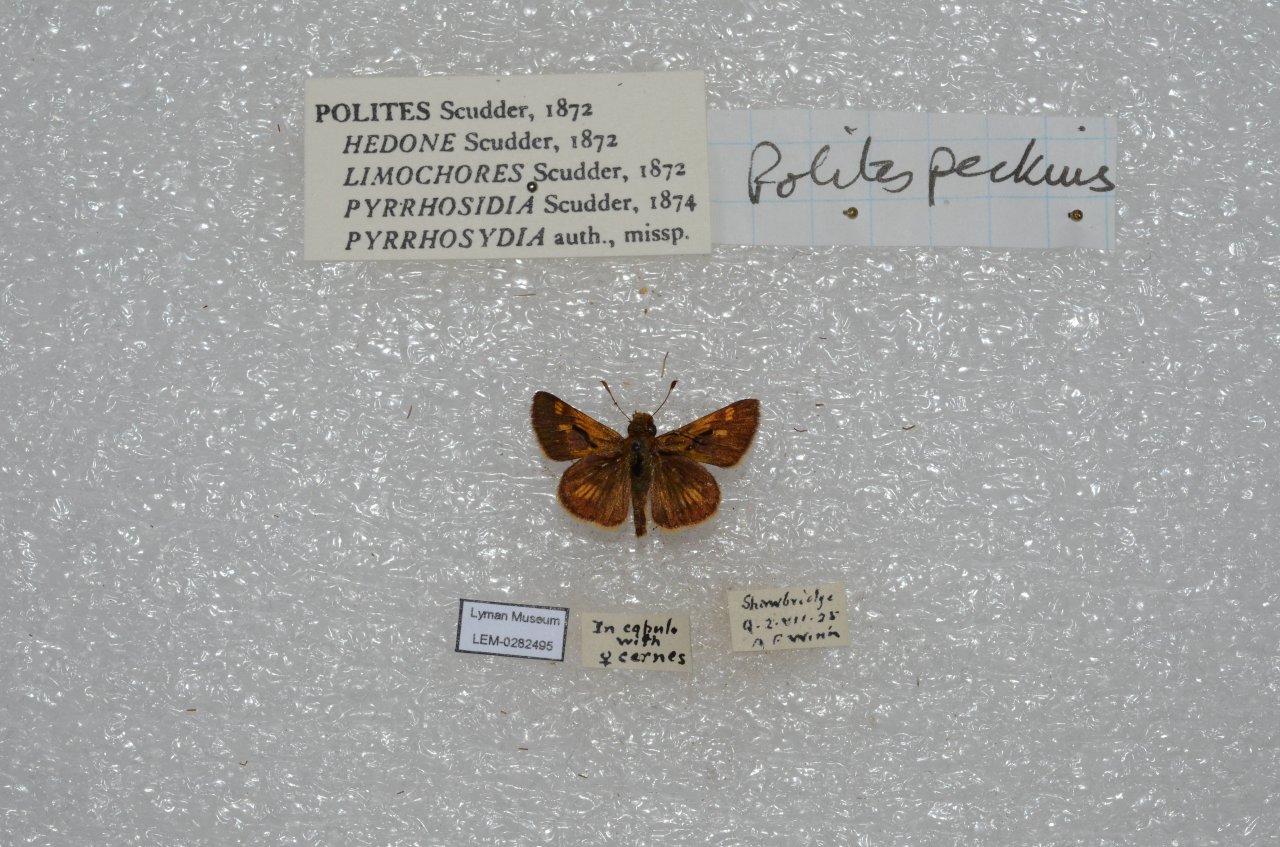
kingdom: Animalia
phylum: Arthropoda
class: Insecta
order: Lepidoptera
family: Hesperiidae
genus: Polites
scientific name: Polites coras
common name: Peck's Skipper
